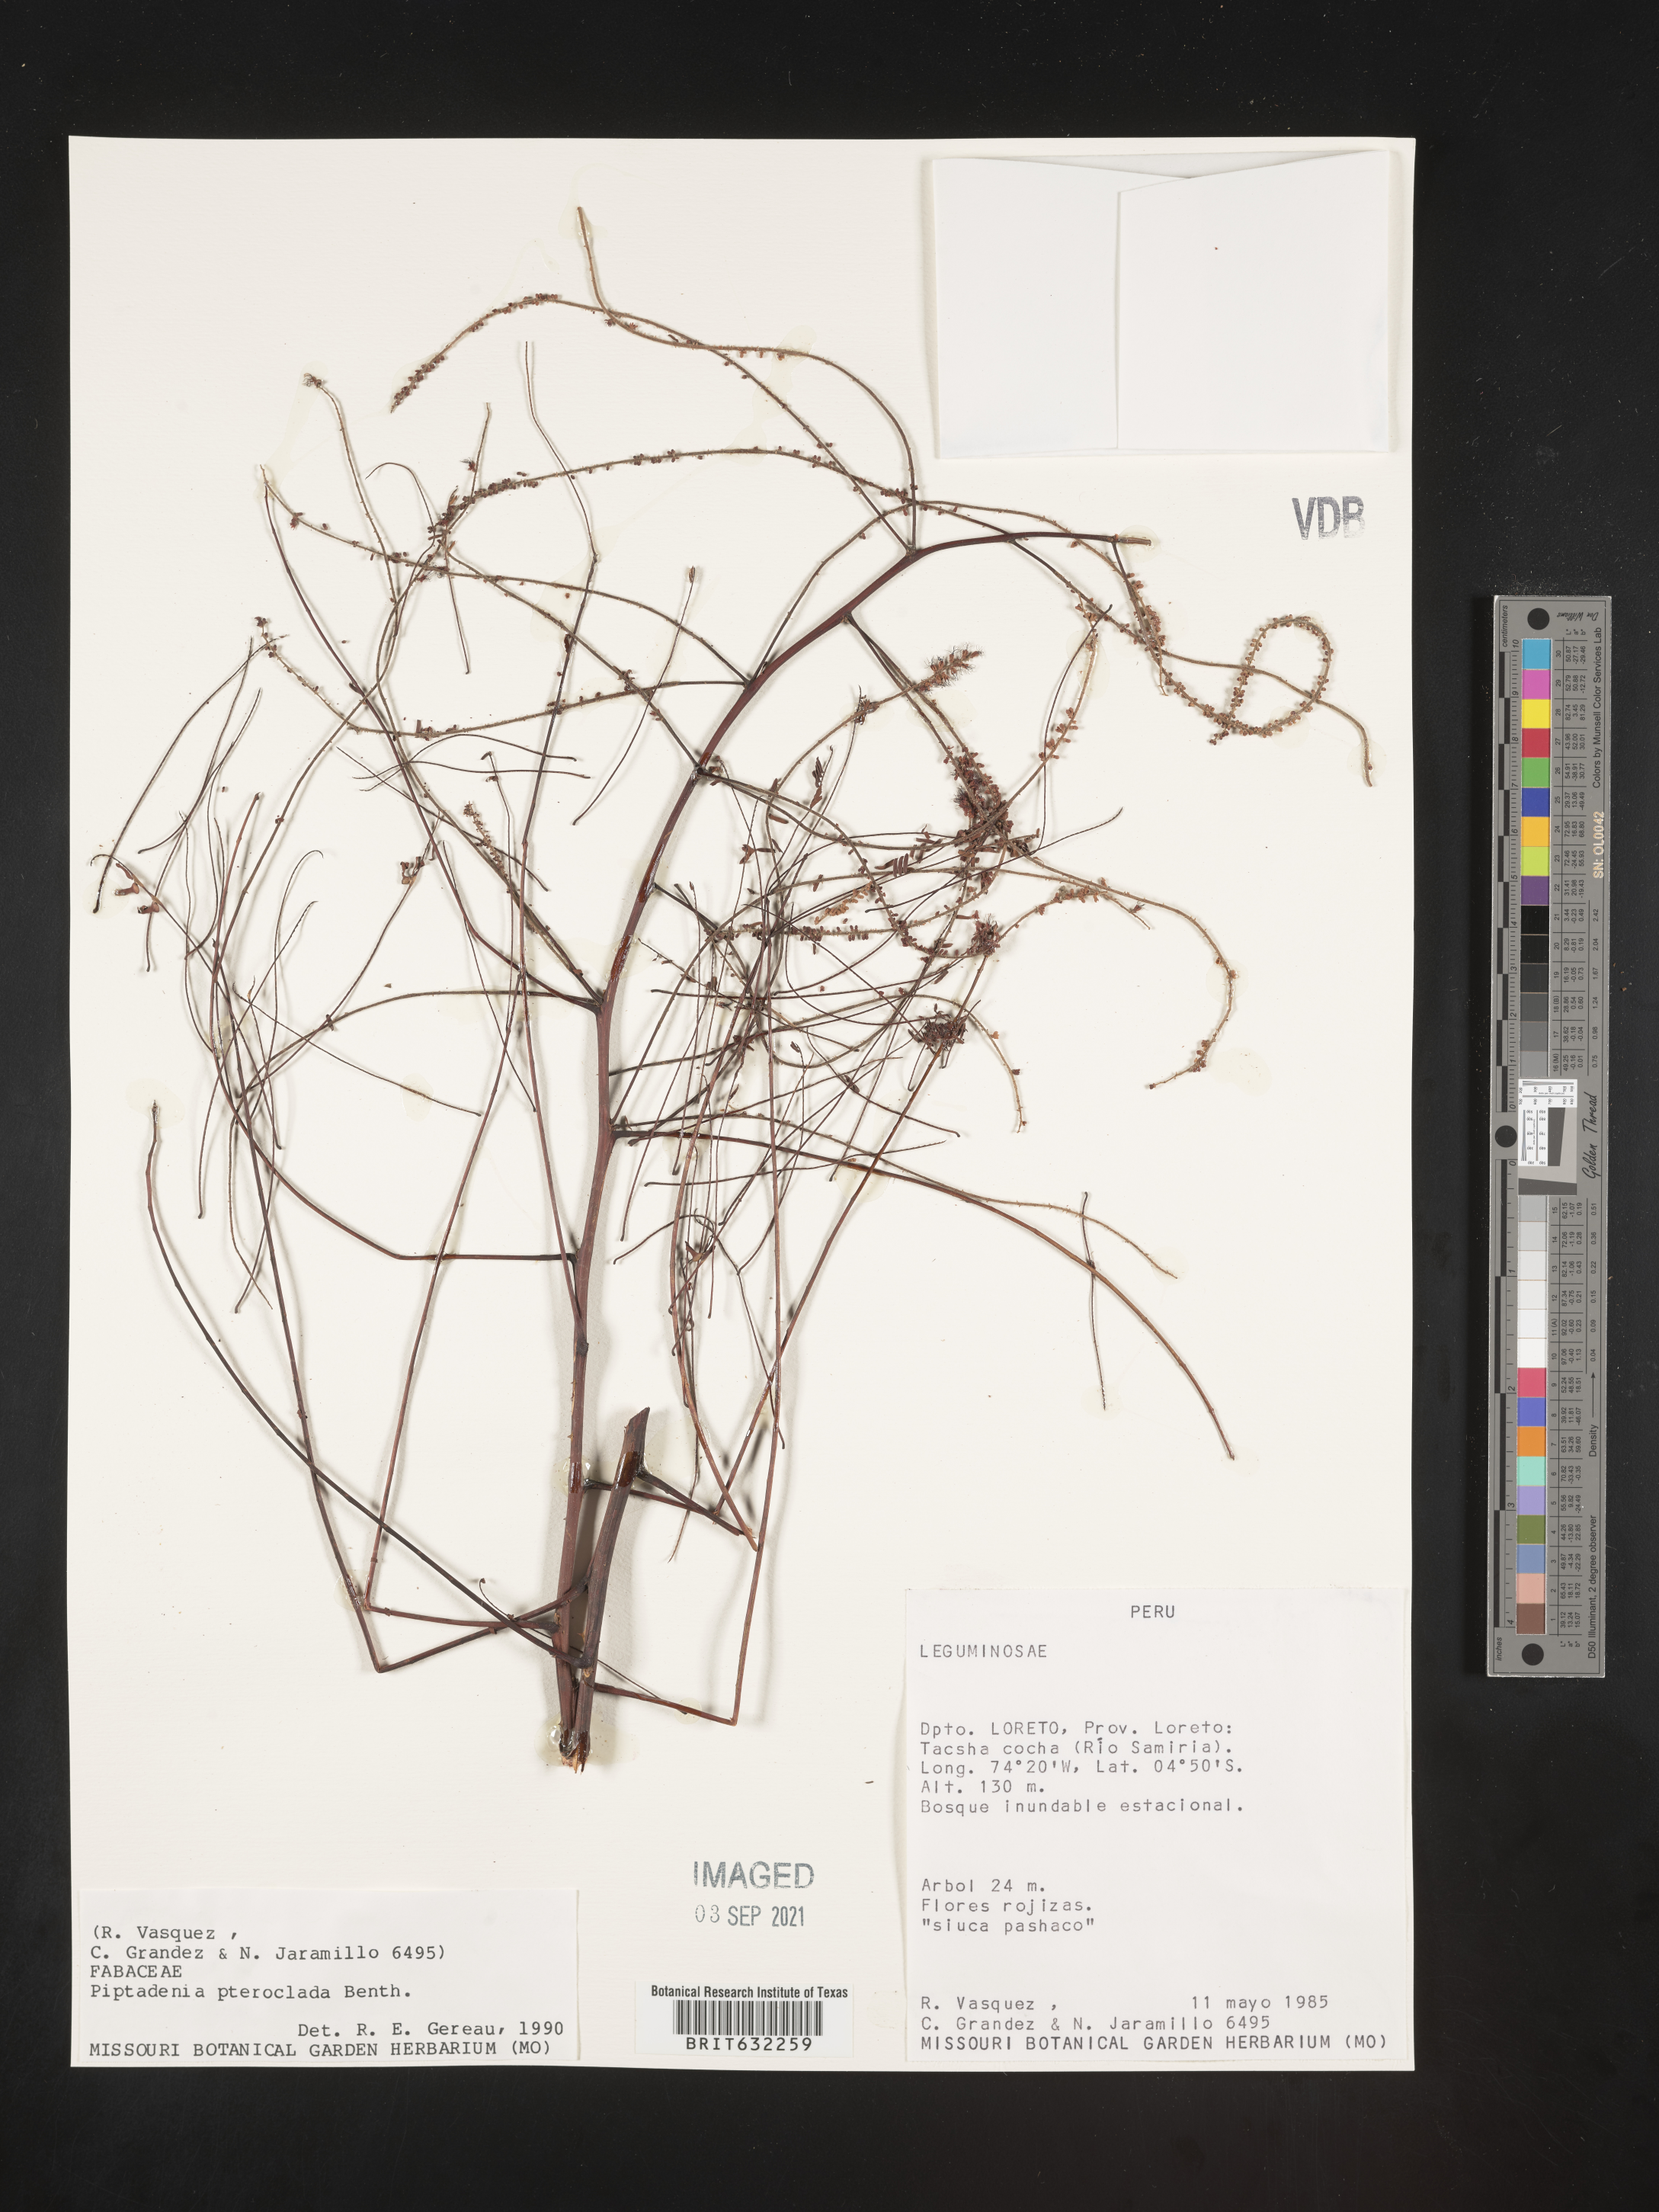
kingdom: Plantae
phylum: Tracheophyta
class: Magnoliopsida
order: Fabales
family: Fabaceae
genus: Piptadenia
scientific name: Piptadenia
